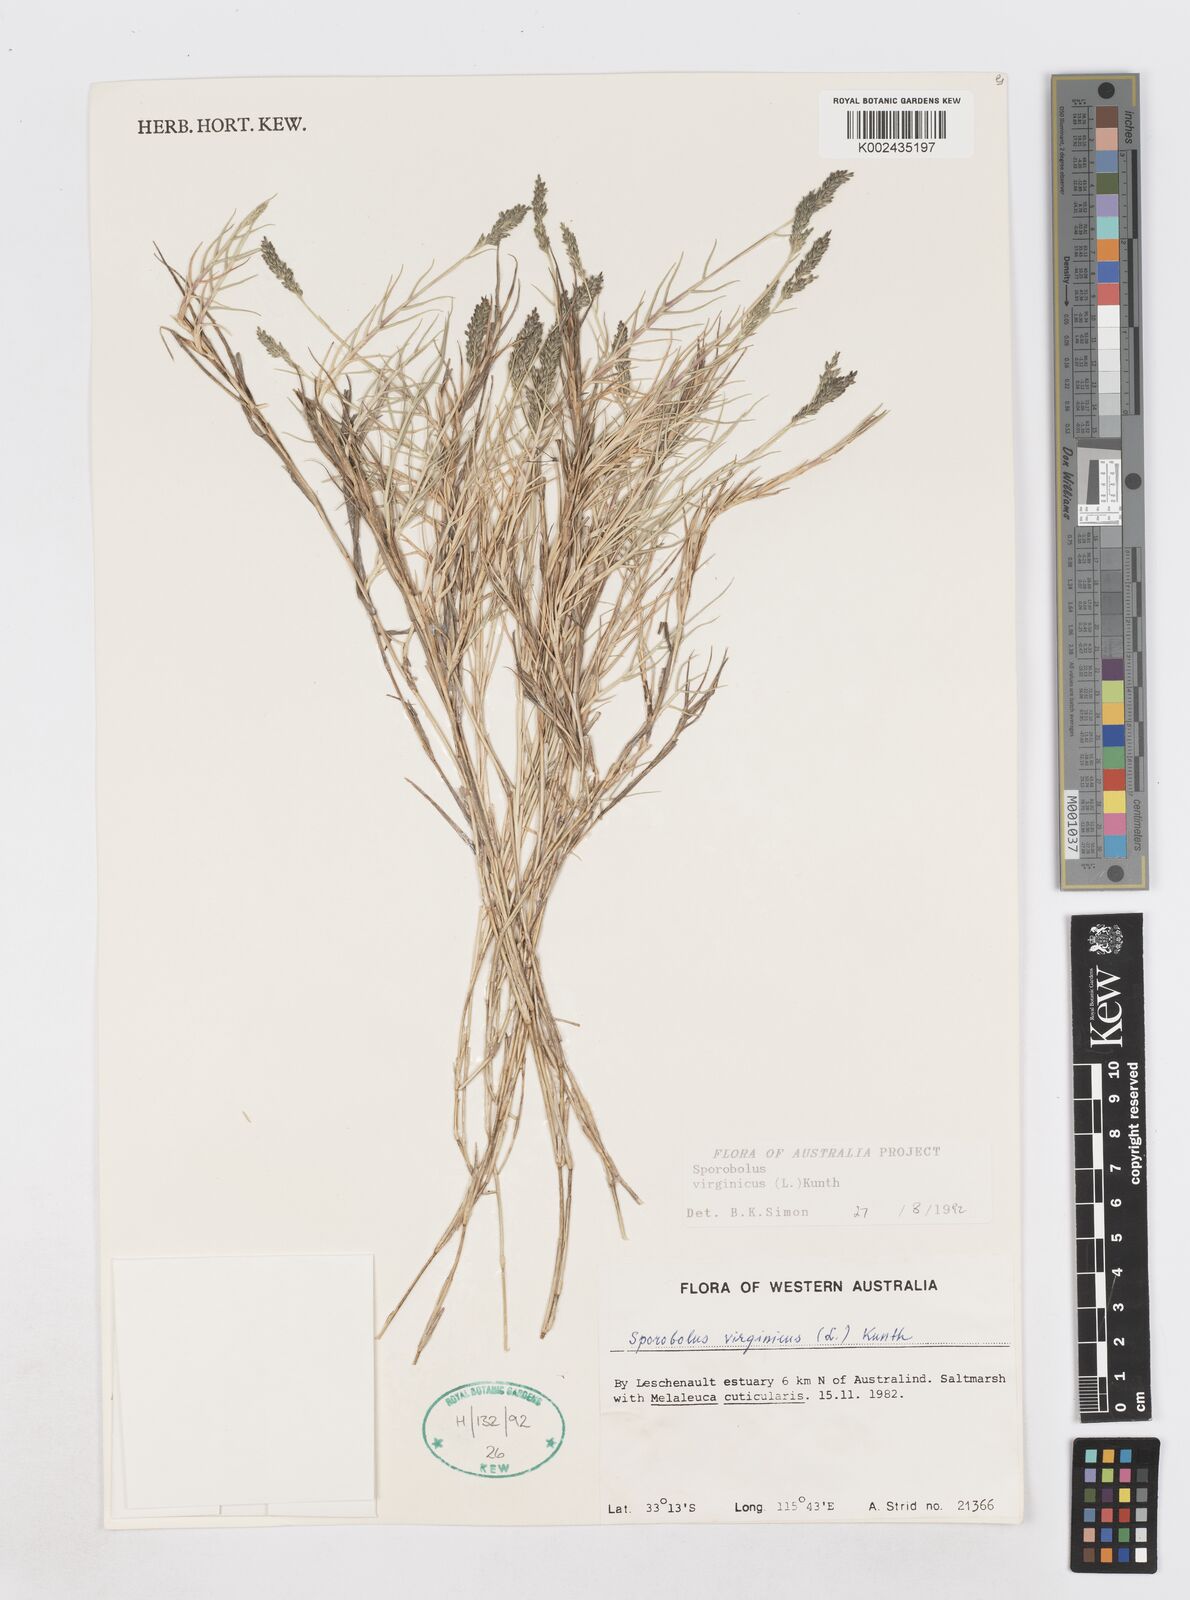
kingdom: Plantae
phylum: Tracheophyta
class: Liliopsida
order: Poales
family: Poaceae
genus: Sporobolus
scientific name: Sporobolus virginicus
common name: Beach dropseed
